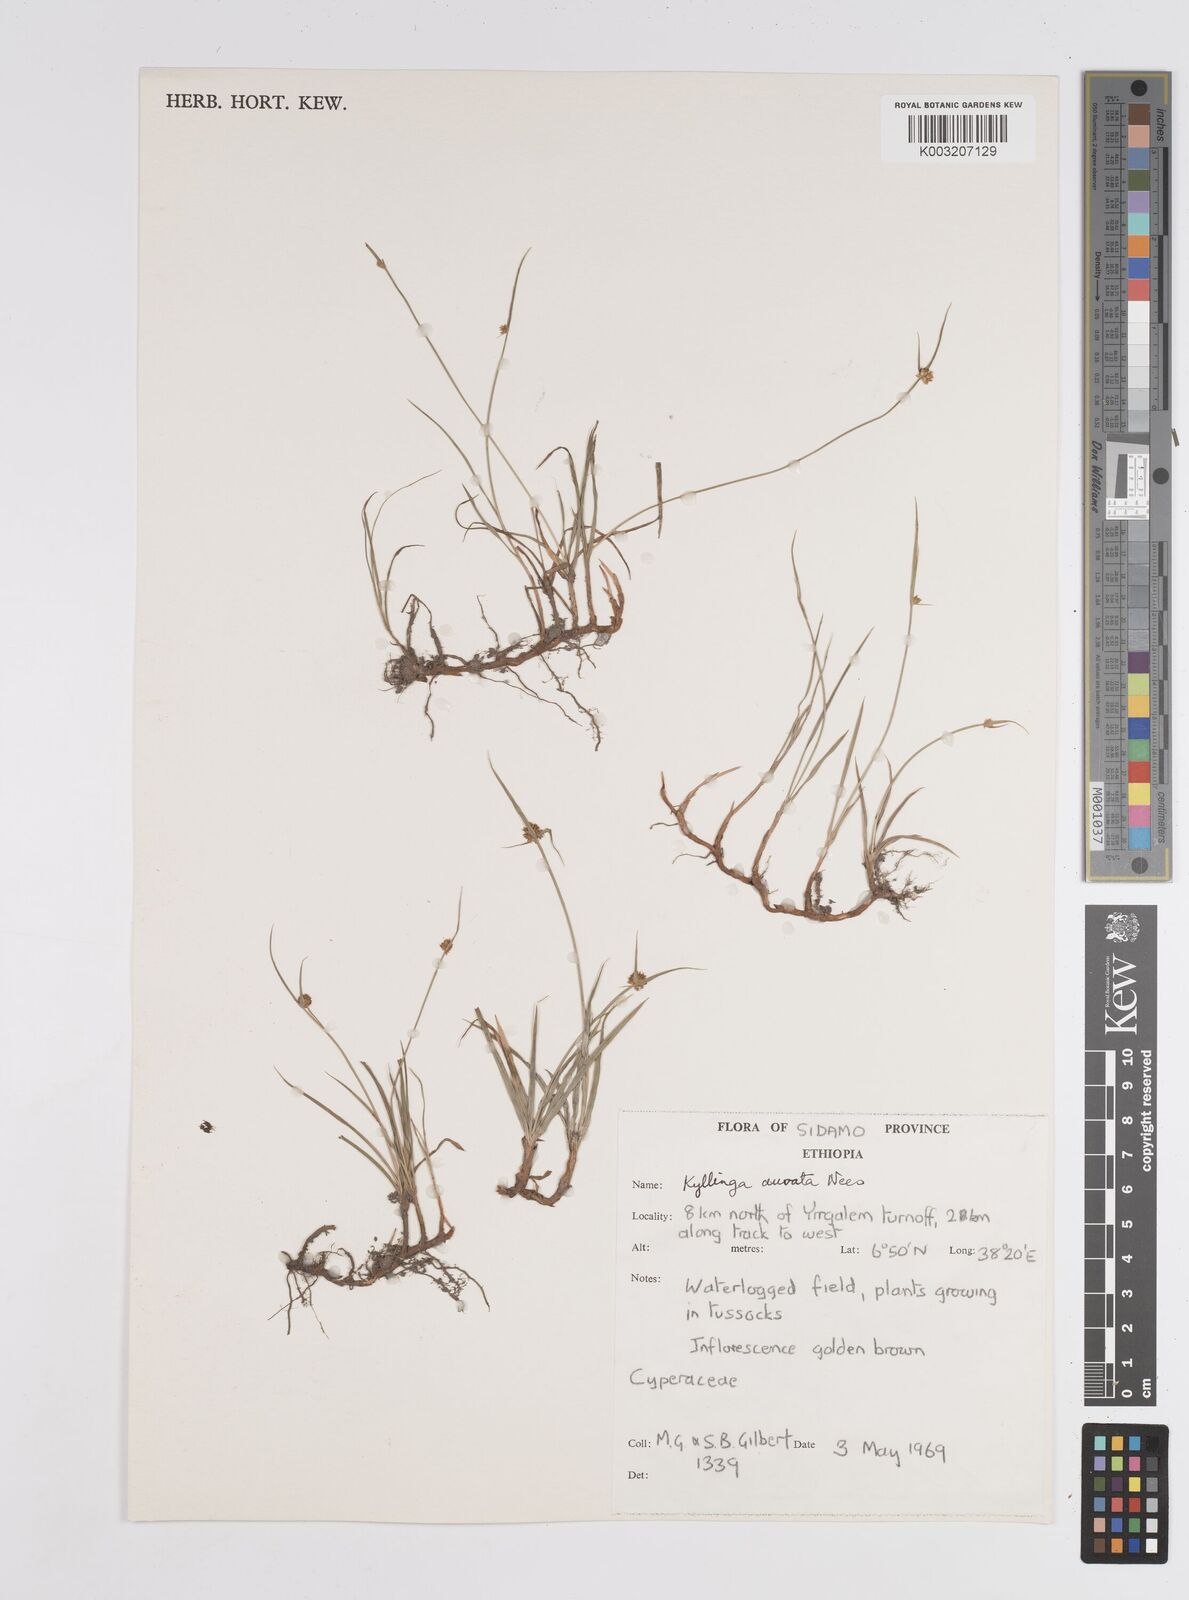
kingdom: Plantae
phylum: Tracheophyta
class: Liliopsida
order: Poales
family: Cyperaceae
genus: Cyperus
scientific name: Cyperus
